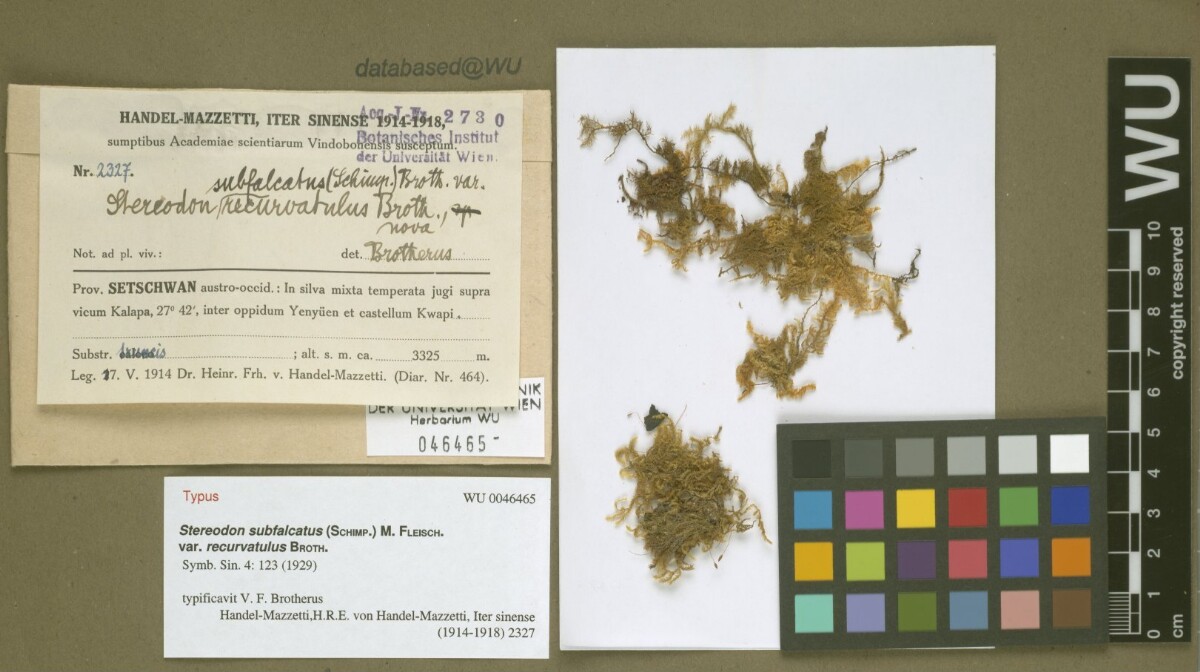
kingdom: Plantae
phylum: Bryophyta
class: Bryopsida
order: Hypnales
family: Pylaisiaceae
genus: Pylaisia
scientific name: Pylaisia extenta
